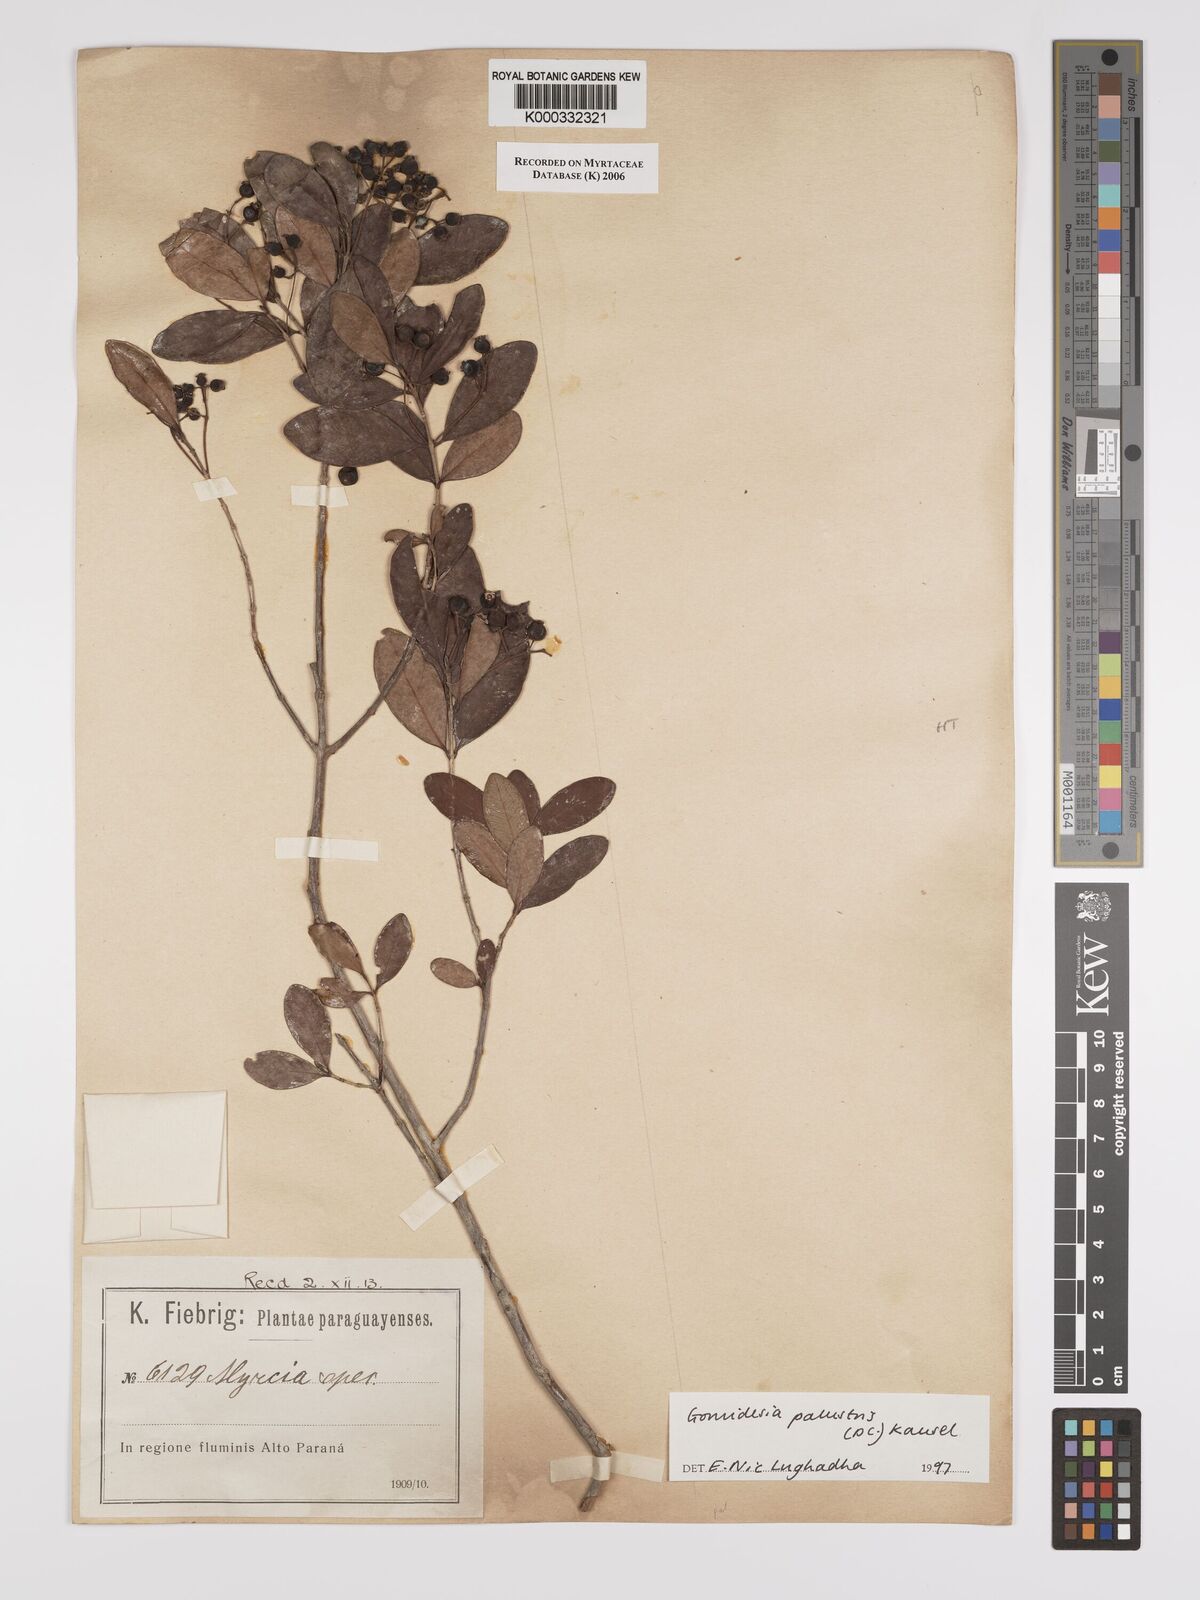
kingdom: Plantae
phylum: Tracheophyta
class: Magnoliopsida
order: Myrtales
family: Myrtaceae
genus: Myrcia
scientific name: Myrcia palustris
